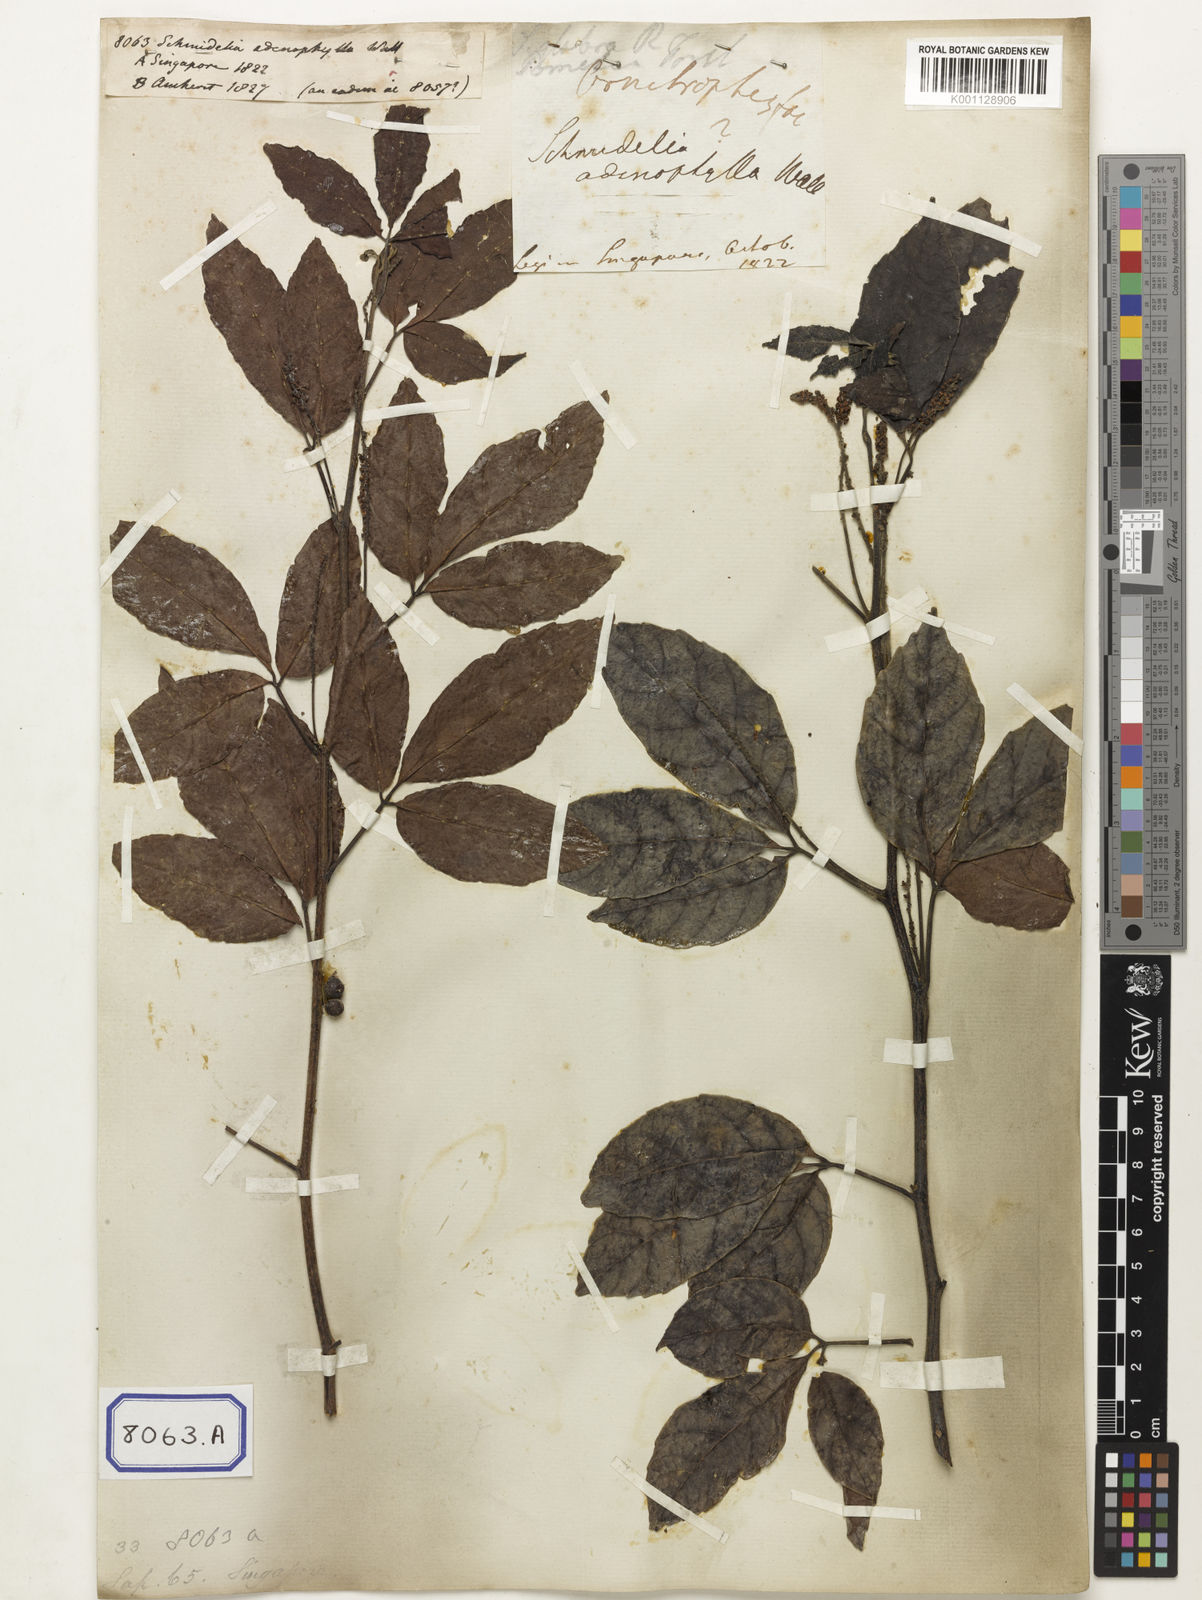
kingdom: Plantae
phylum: Tracheophyta
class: Magnoliopsida
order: Sapindales
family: Sapindaceae
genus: Allophylus
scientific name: Allophylus cobbe
